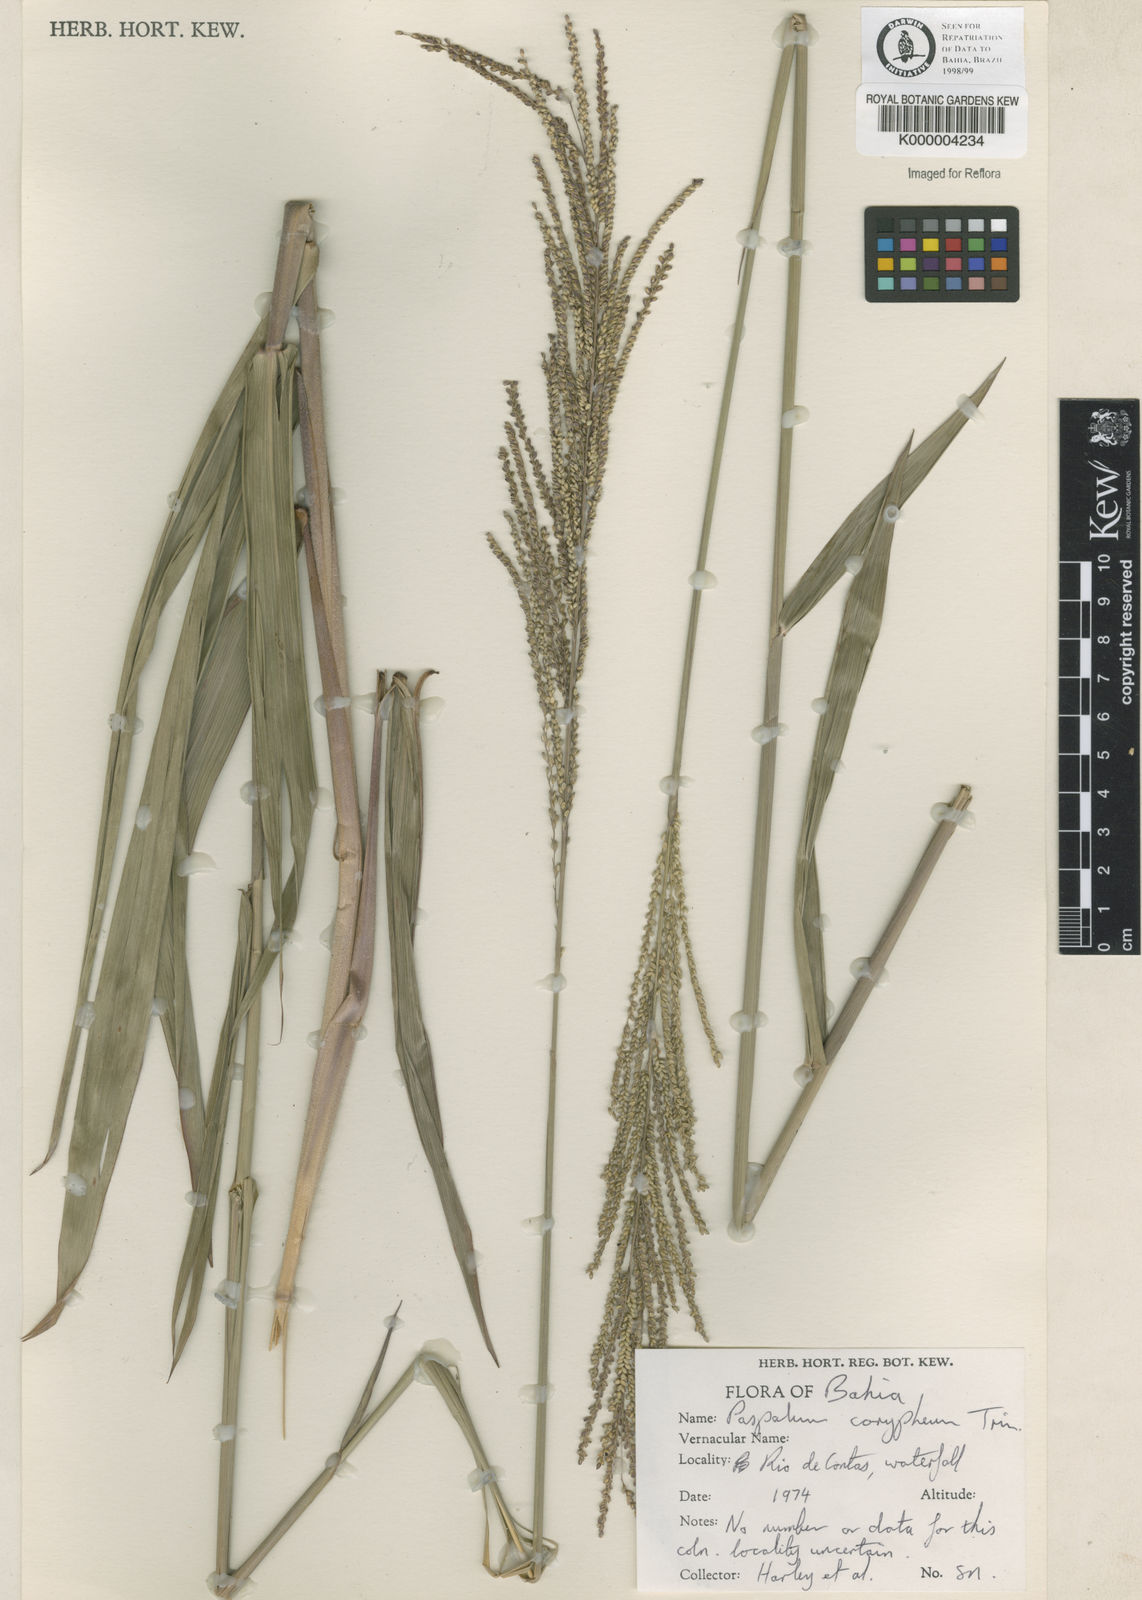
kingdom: Plantae
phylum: Tracheophyta
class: Liliopsida
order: Poales
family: Poaceae
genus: Paspalum
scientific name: Paspalum coryphaeum
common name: Emperor crowngrass
